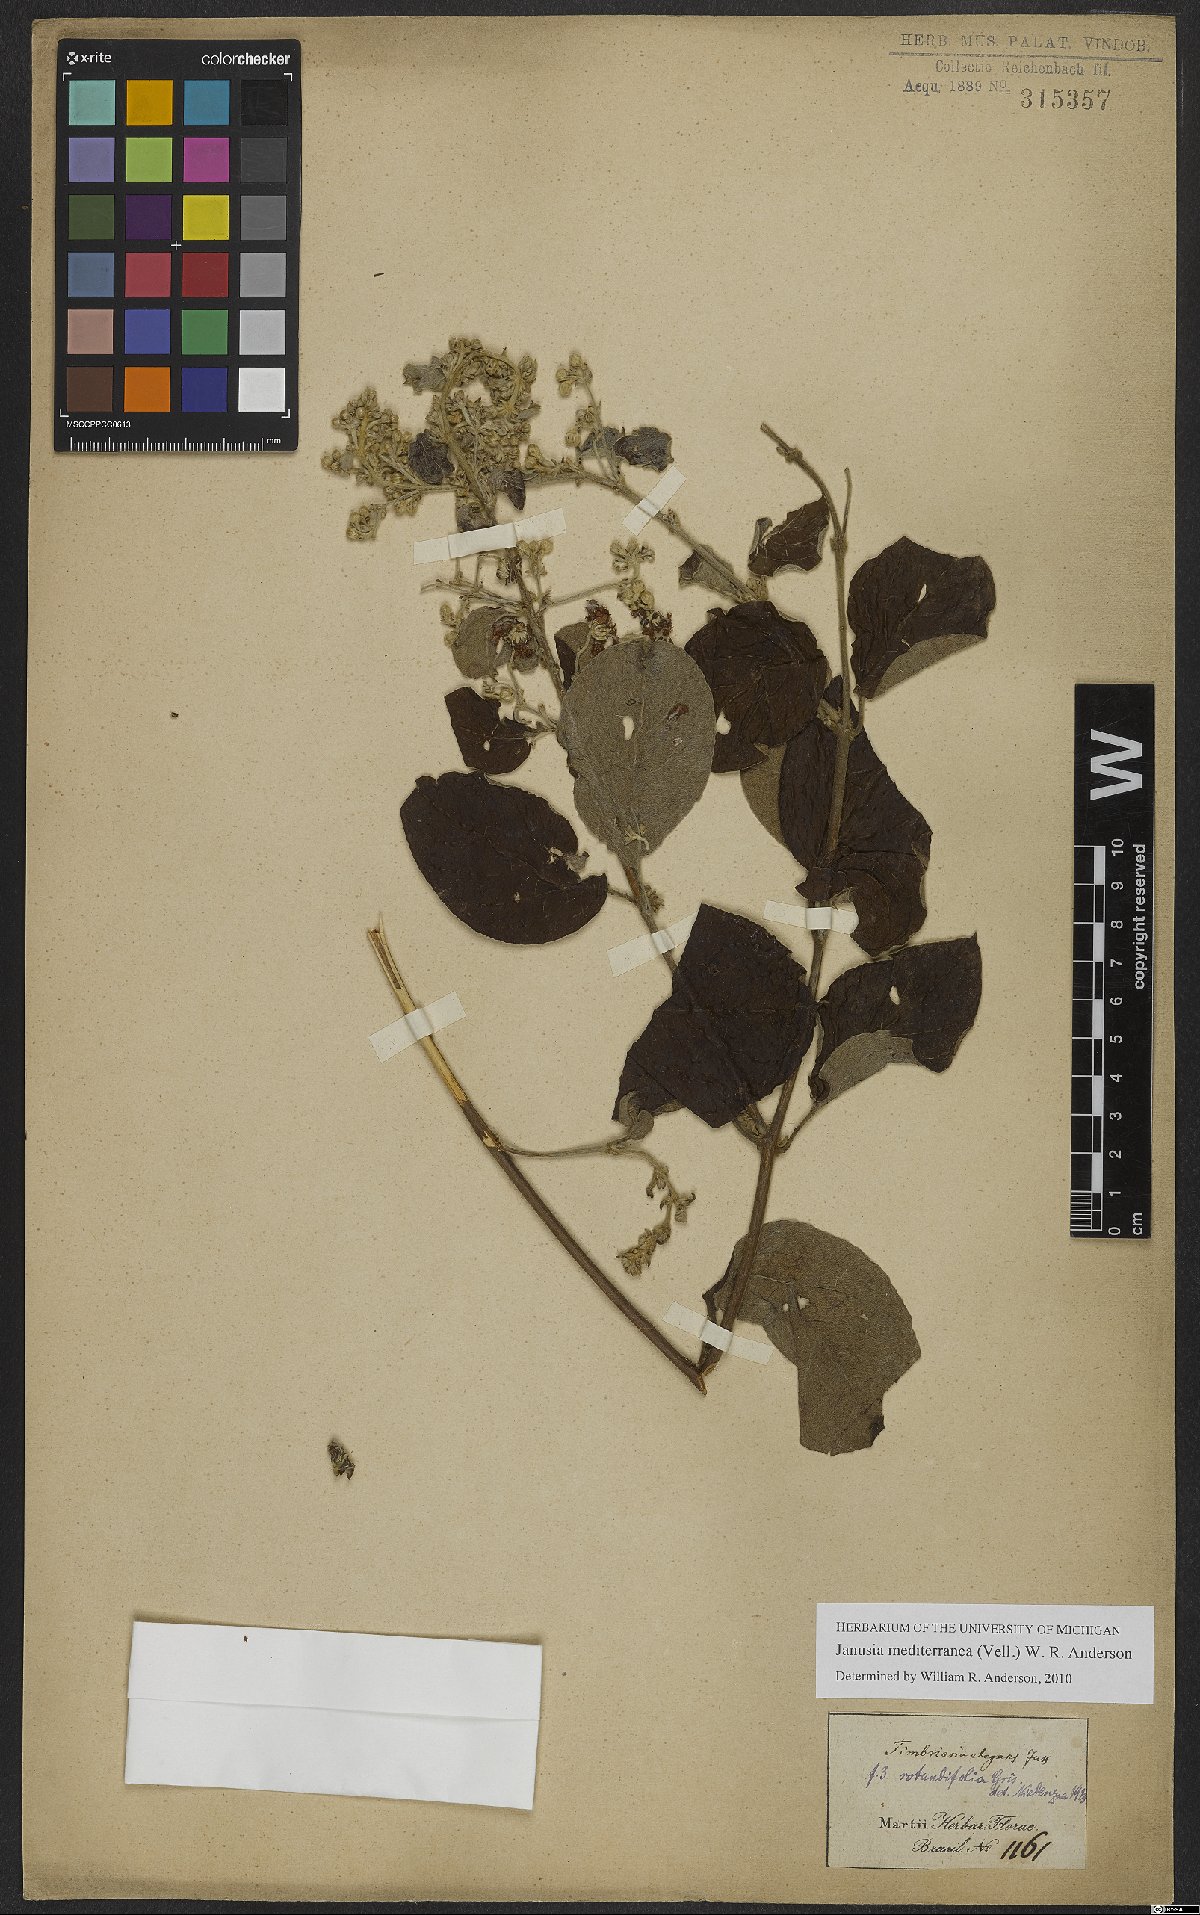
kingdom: Plantae
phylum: Tracheophyta
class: Magnoliopsida
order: Malpighiales
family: Malpighiaceae
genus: Janusia
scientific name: Janusia mediterranea
